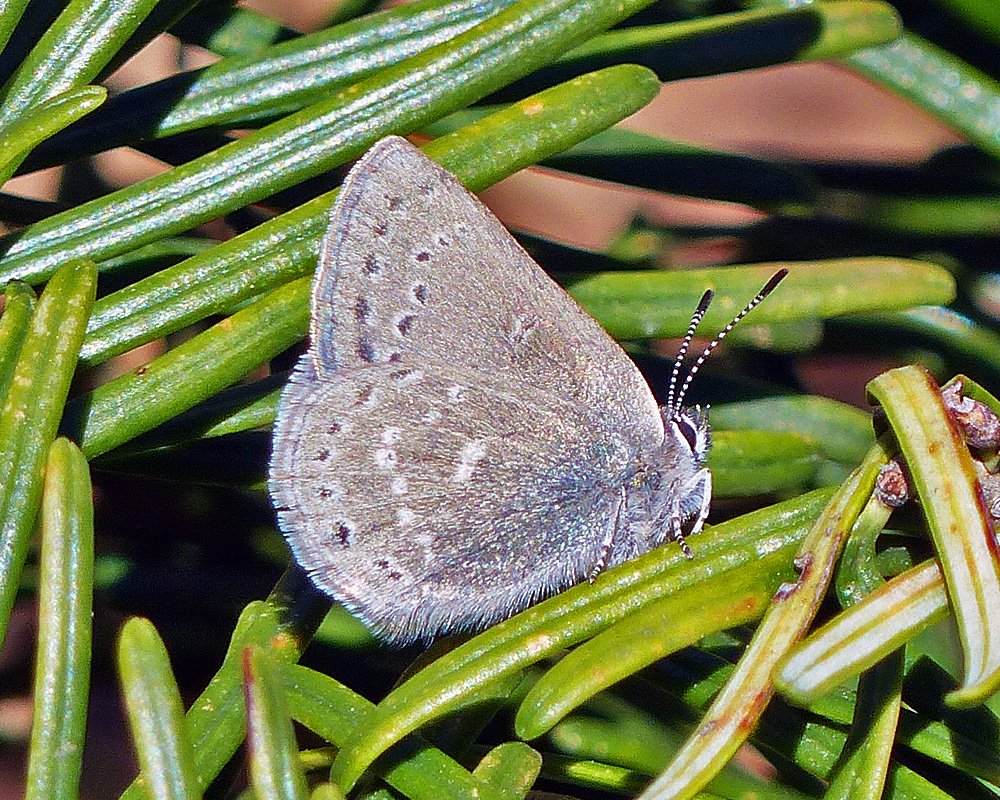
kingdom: Animalia
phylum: Arthropoda
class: Insecta
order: Lepidoptera
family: Lycaenidae
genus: Satyrium
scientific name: Satyrium fuliginosa
